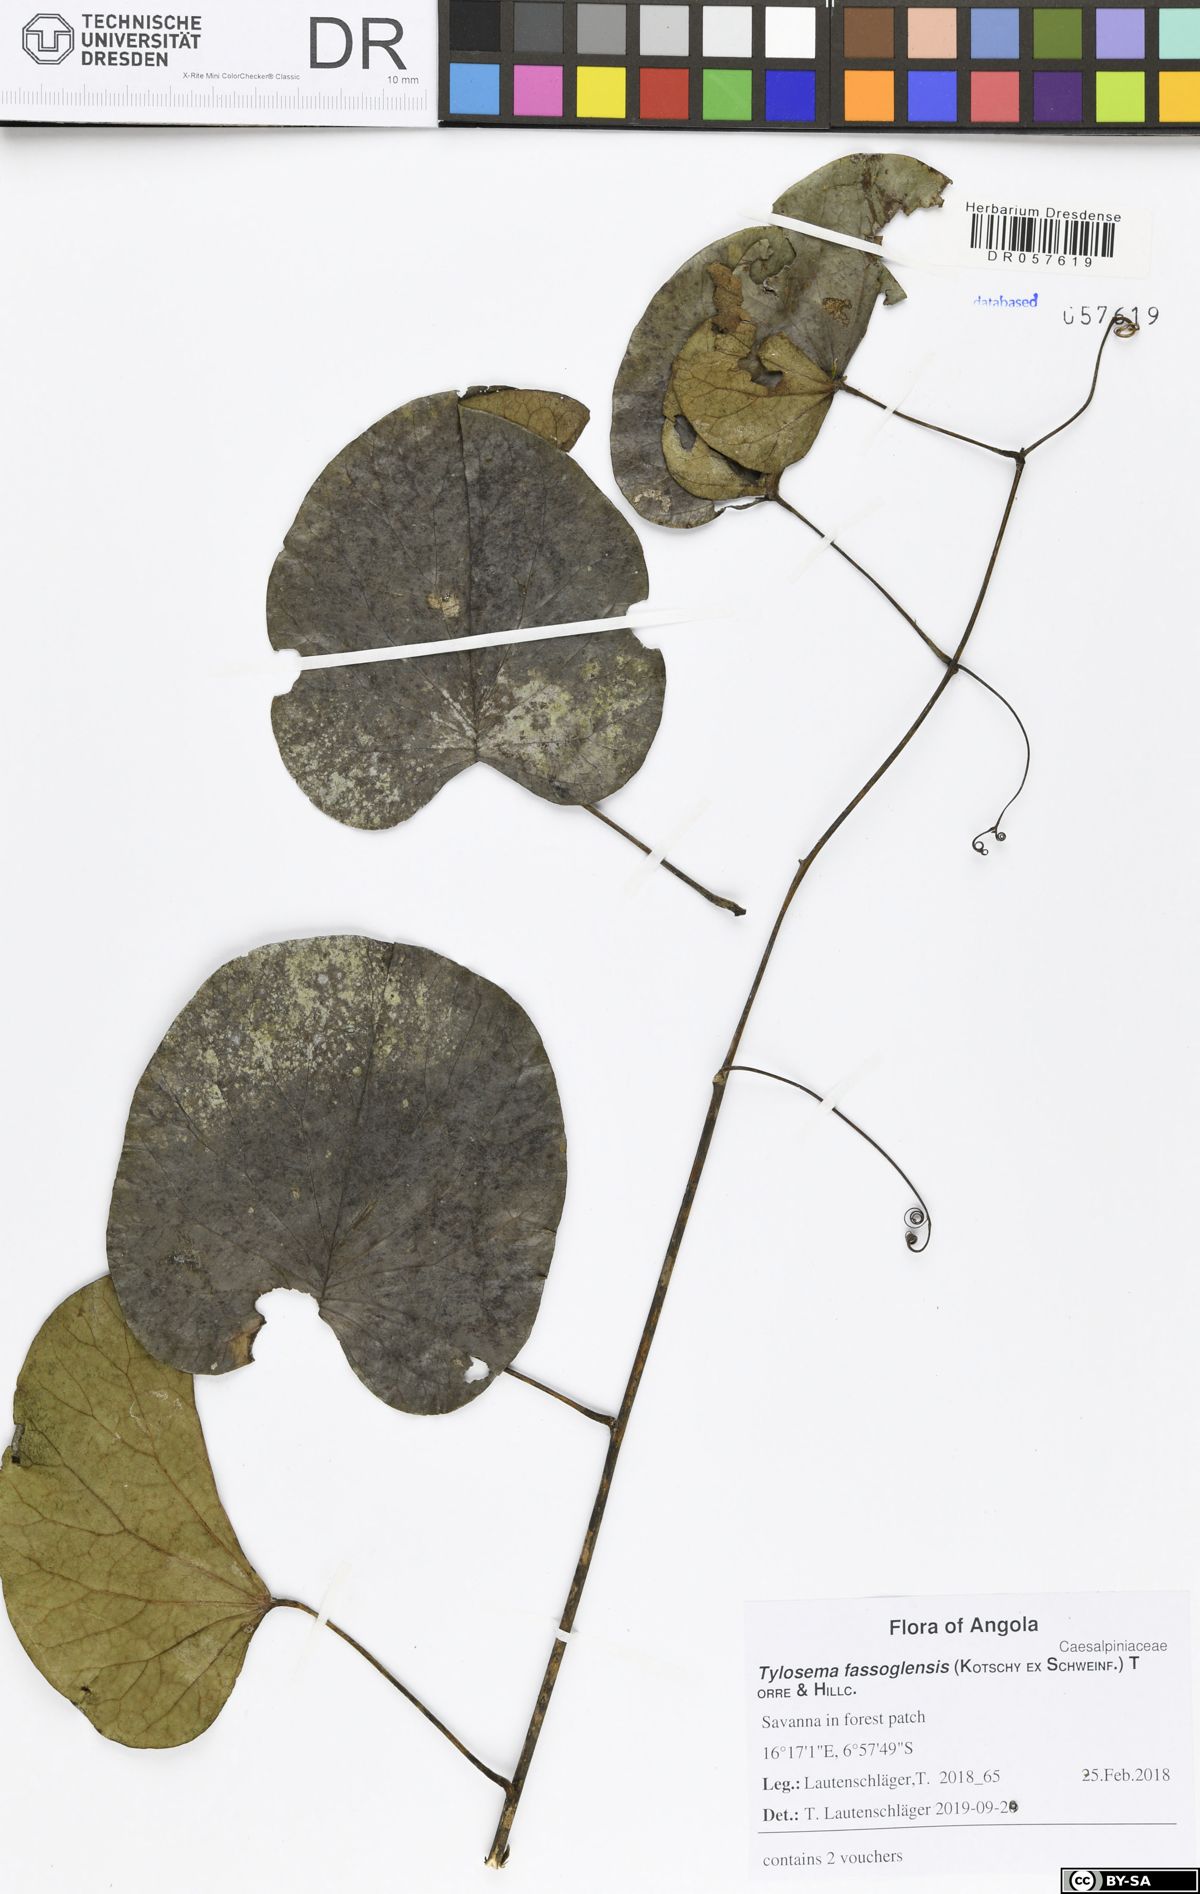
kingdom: Plantae
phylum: Tracheophyta
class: Magnoliopsida
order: Fabales
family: Fabaceae
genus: Tylosema
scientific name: Tylosema fassoglense
